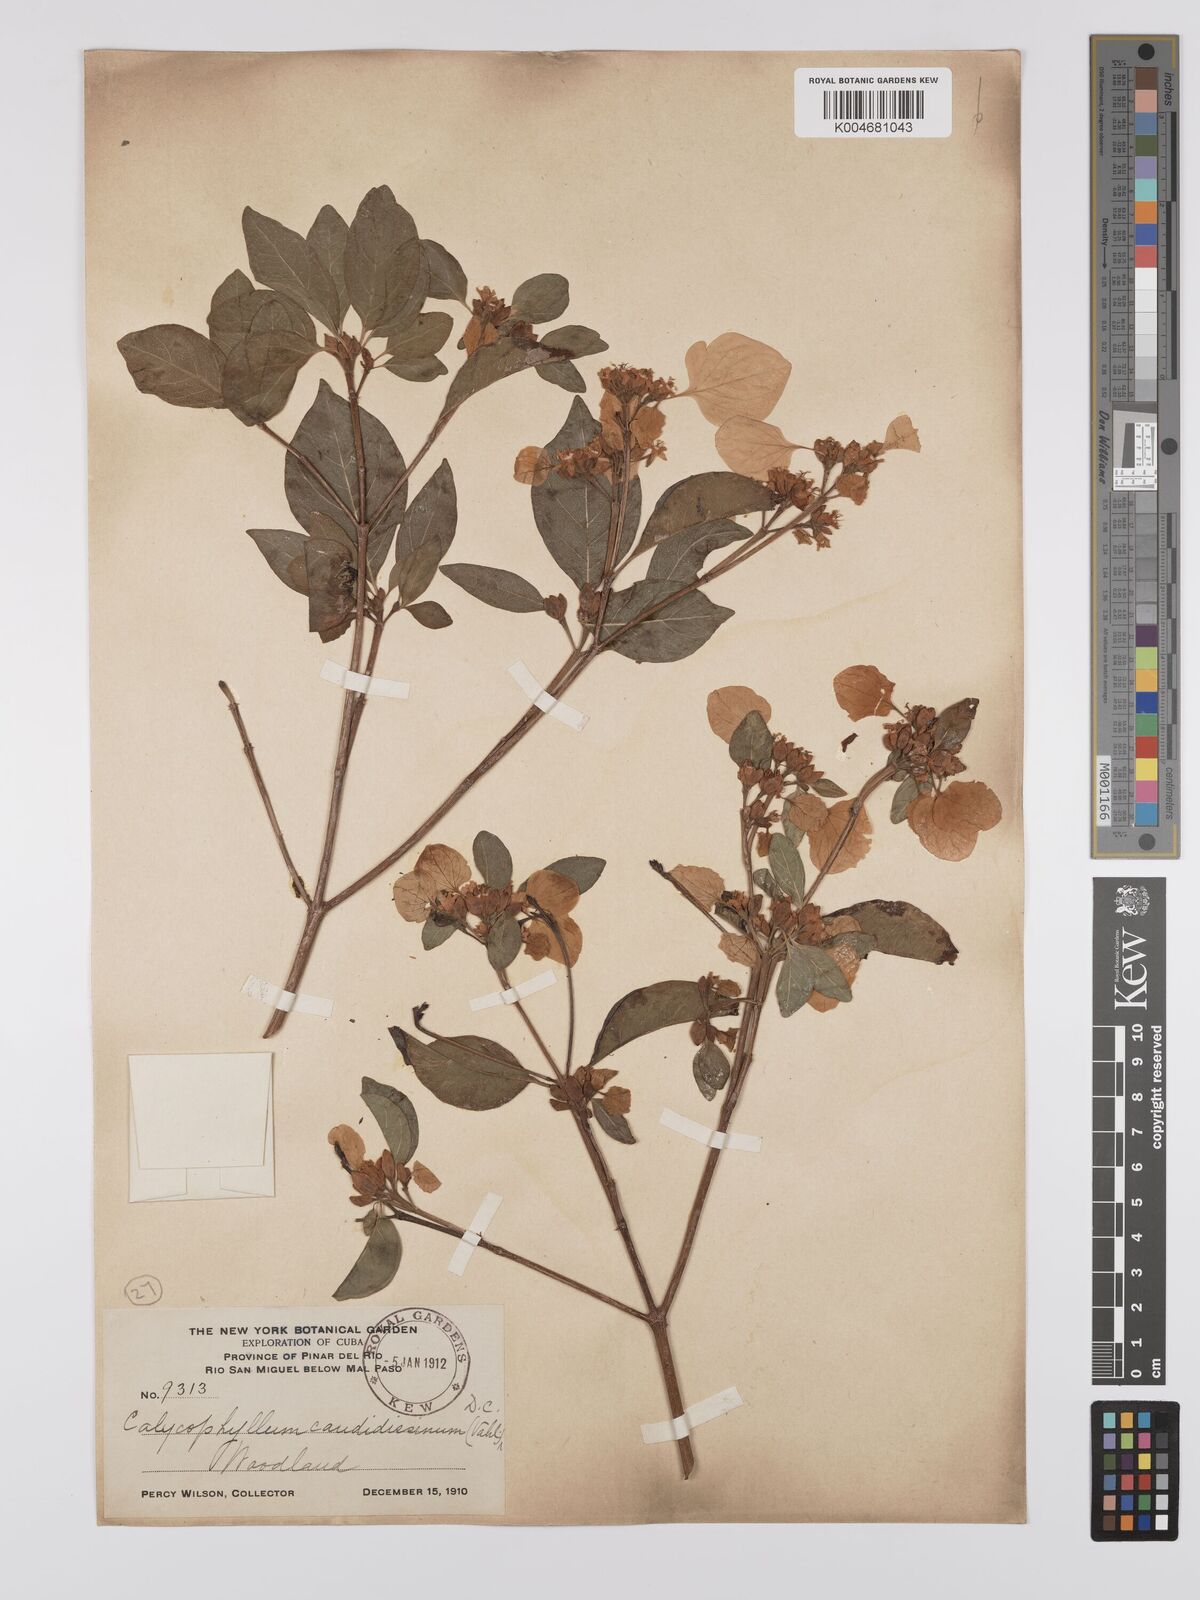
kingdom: Plantae
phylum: Tracheophyta
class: Magnoliopsida
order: Gentianales
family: Rubiaceae
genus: Calycophyllum
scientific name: Calycophyllum candidissimum
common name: Dagame
